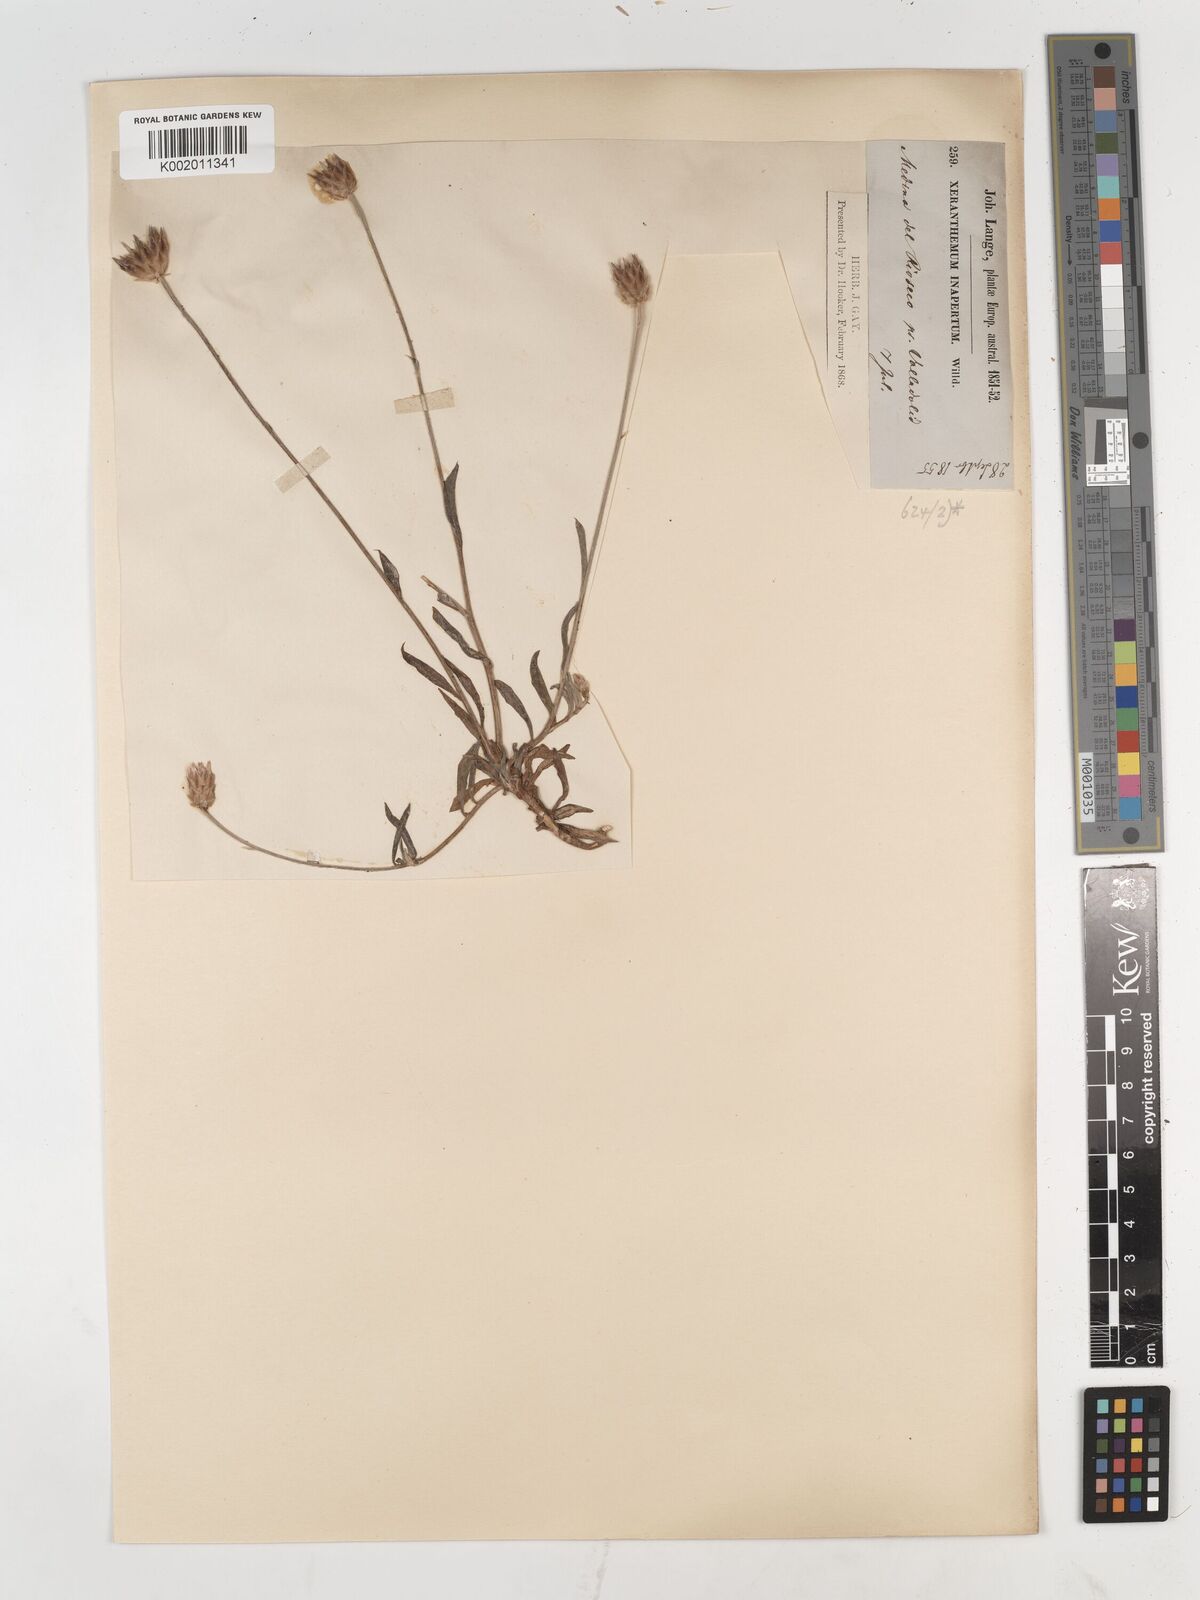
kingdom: Plantae
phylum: Tracheophyta
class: Magnoliopsida
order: Asterales
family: Asteraceae
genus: Xeranthemum
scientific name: Xeranthemum inapertum
